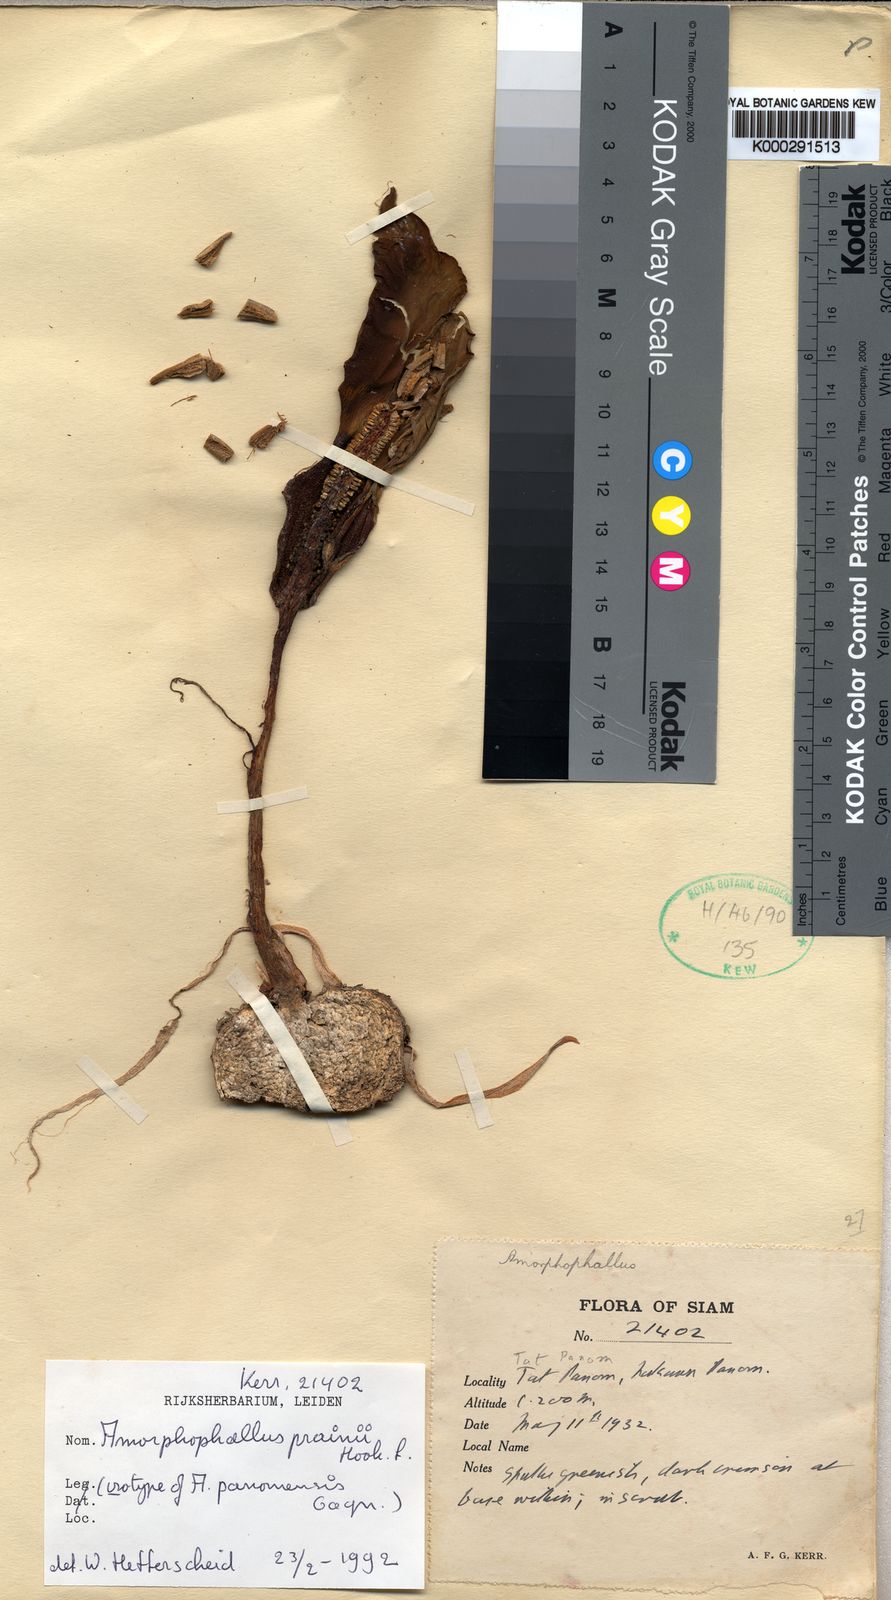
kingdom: Plantae
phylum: Tracheophyta
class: Liliopsida
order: Alismatales
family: Araceae
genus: Amorphophallus
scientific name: Amorphophallus prainii
